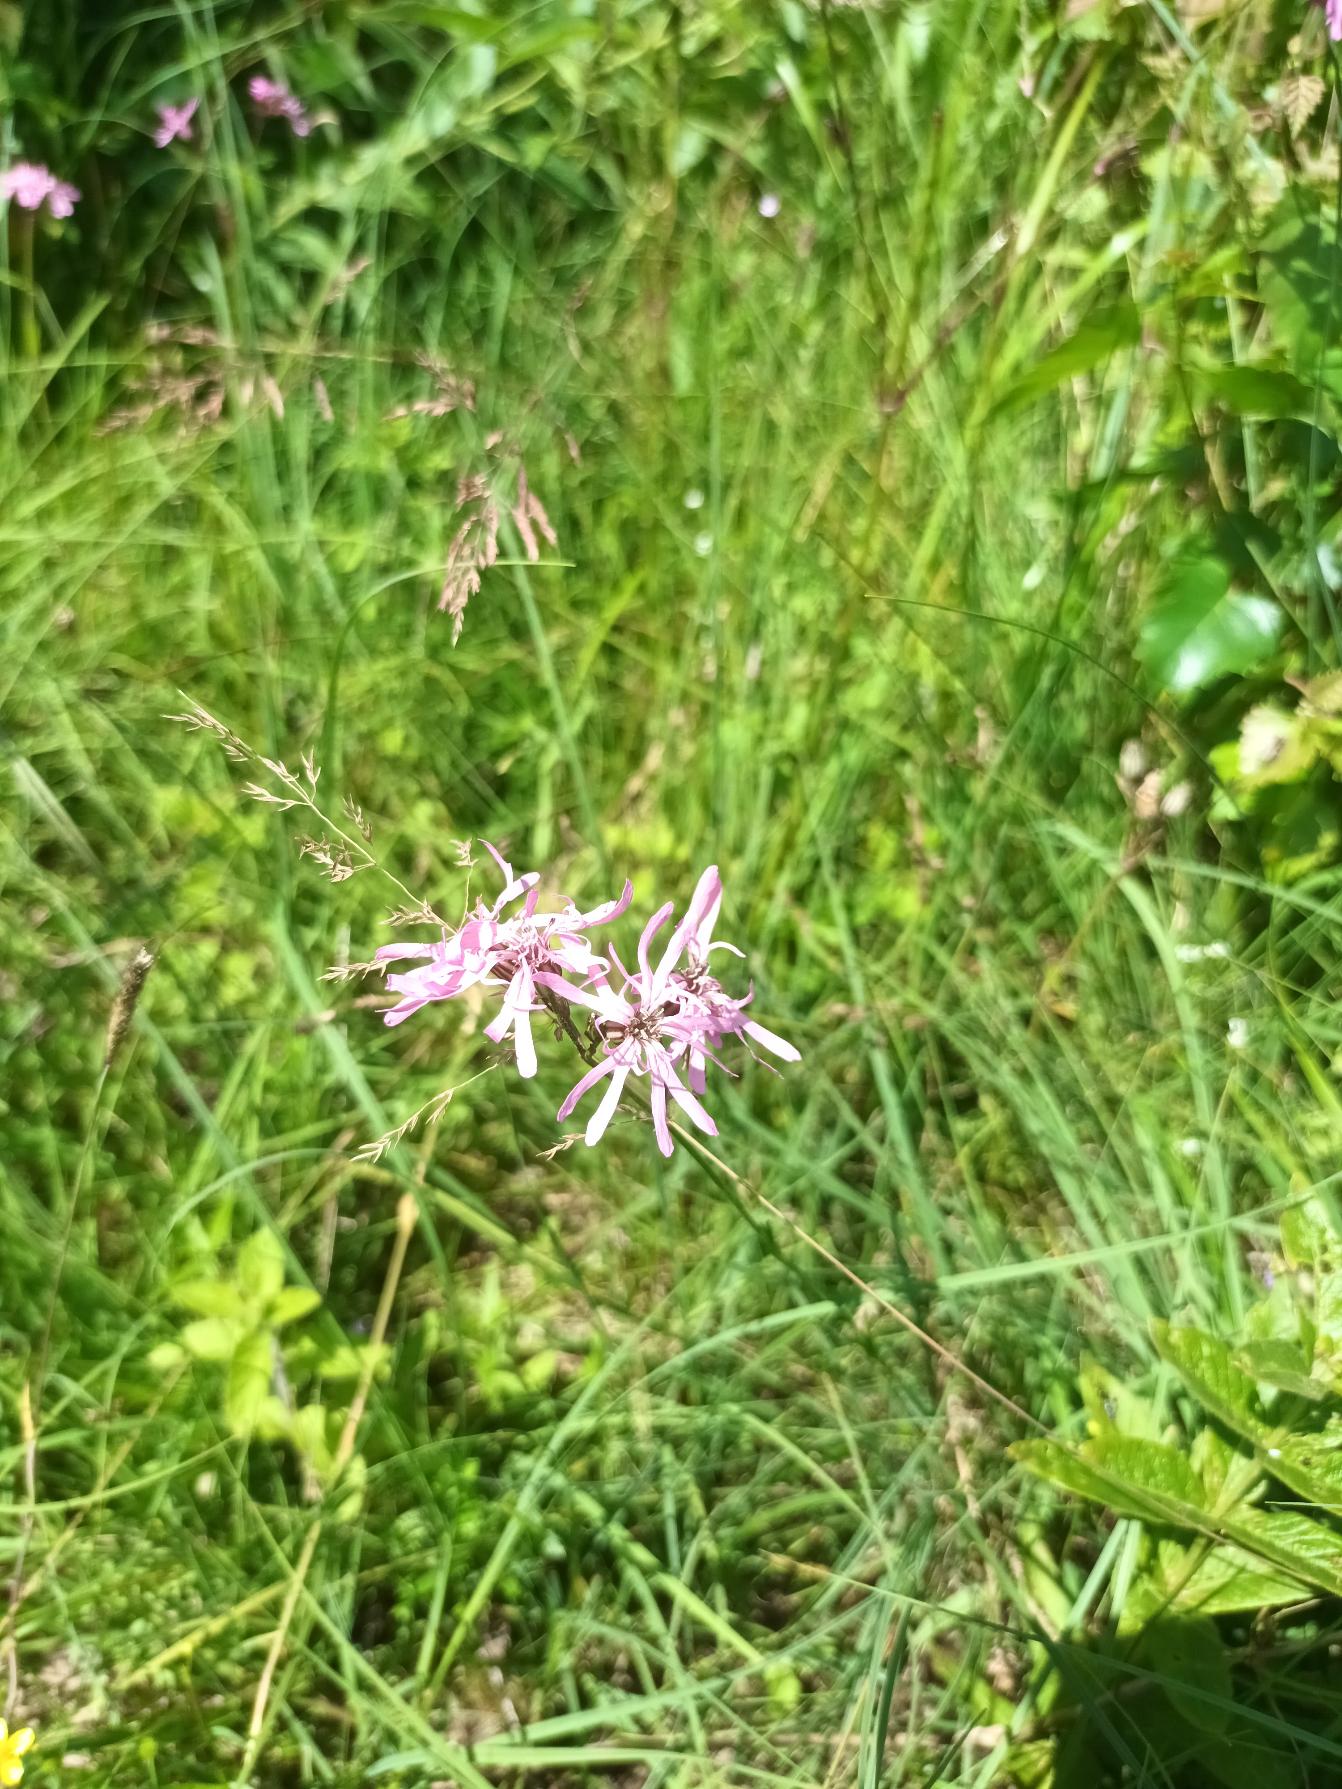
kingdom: Plantae
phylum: Tracheophyta
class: Magnoliopsida
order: Caryophyllales
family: Caryophyllaceae
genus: Silene
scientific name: Silene flos-cuculi
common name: Trævlekrone
